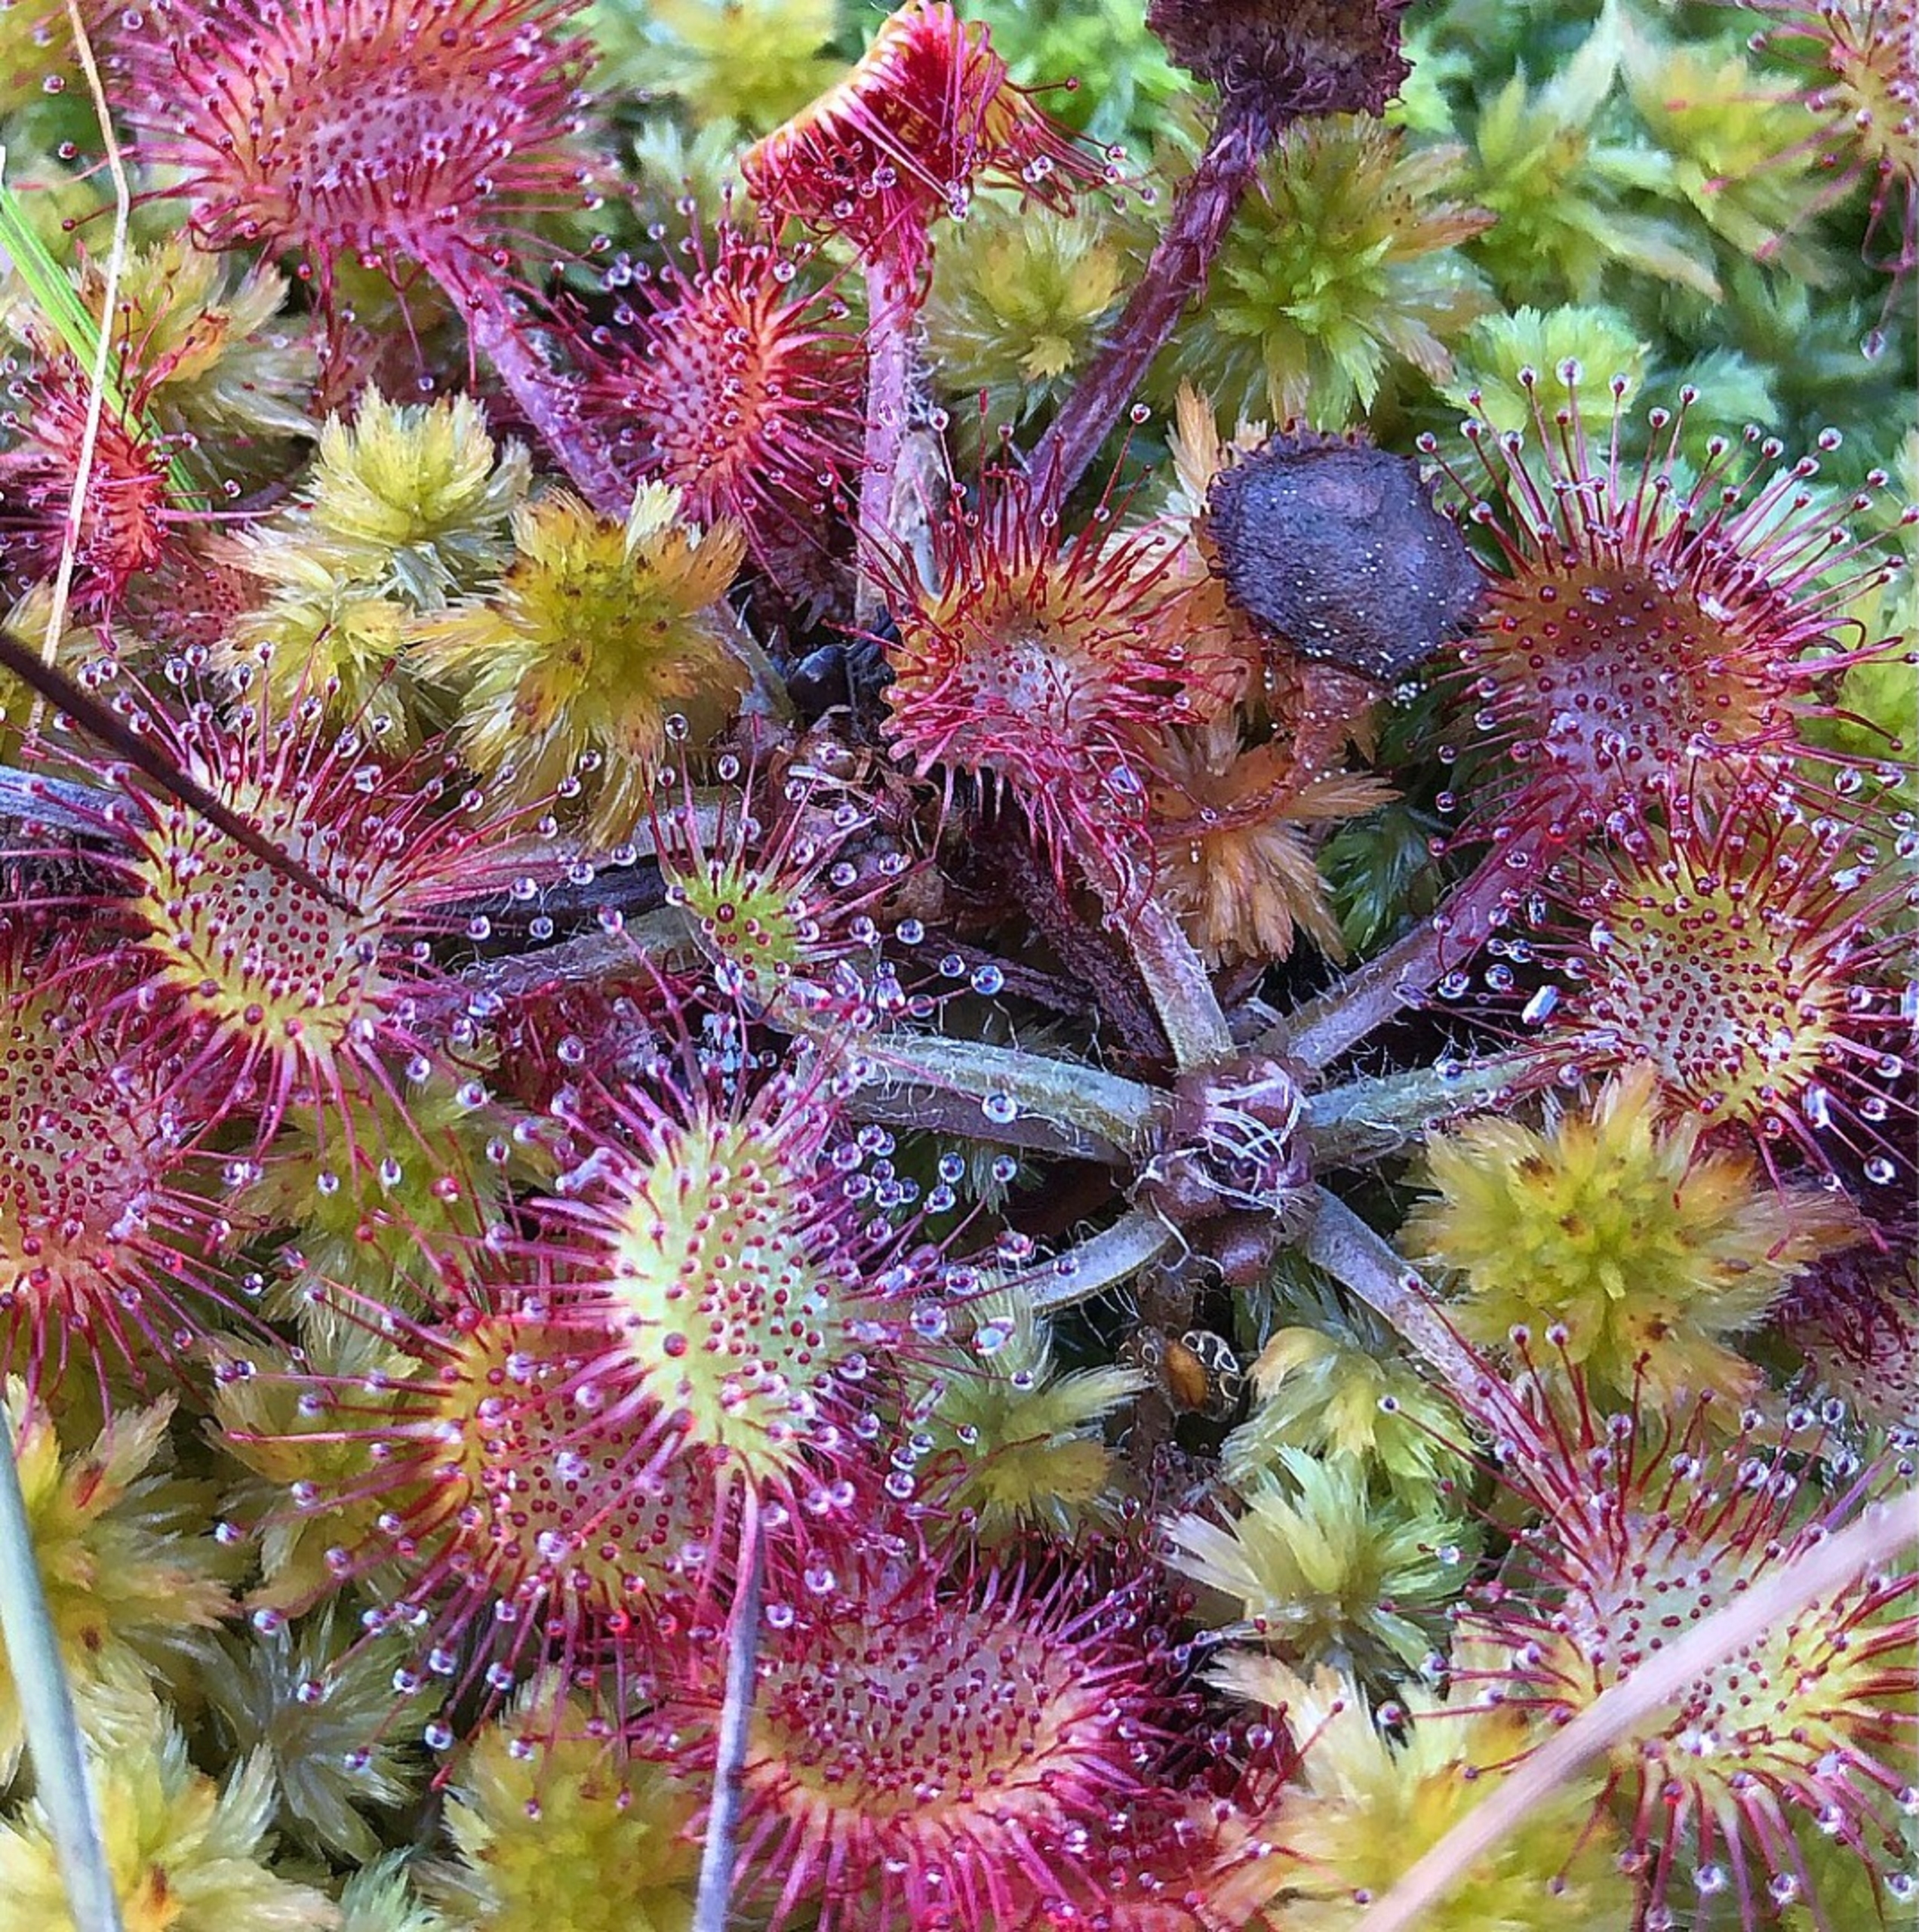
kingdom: Plantae
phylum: Tracheophyta
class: Magnoliopsida
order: Caryophyllales
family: Droseraceae
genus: Drosera
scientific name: Drosera rotundifolia
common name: Rundbladet soldug
